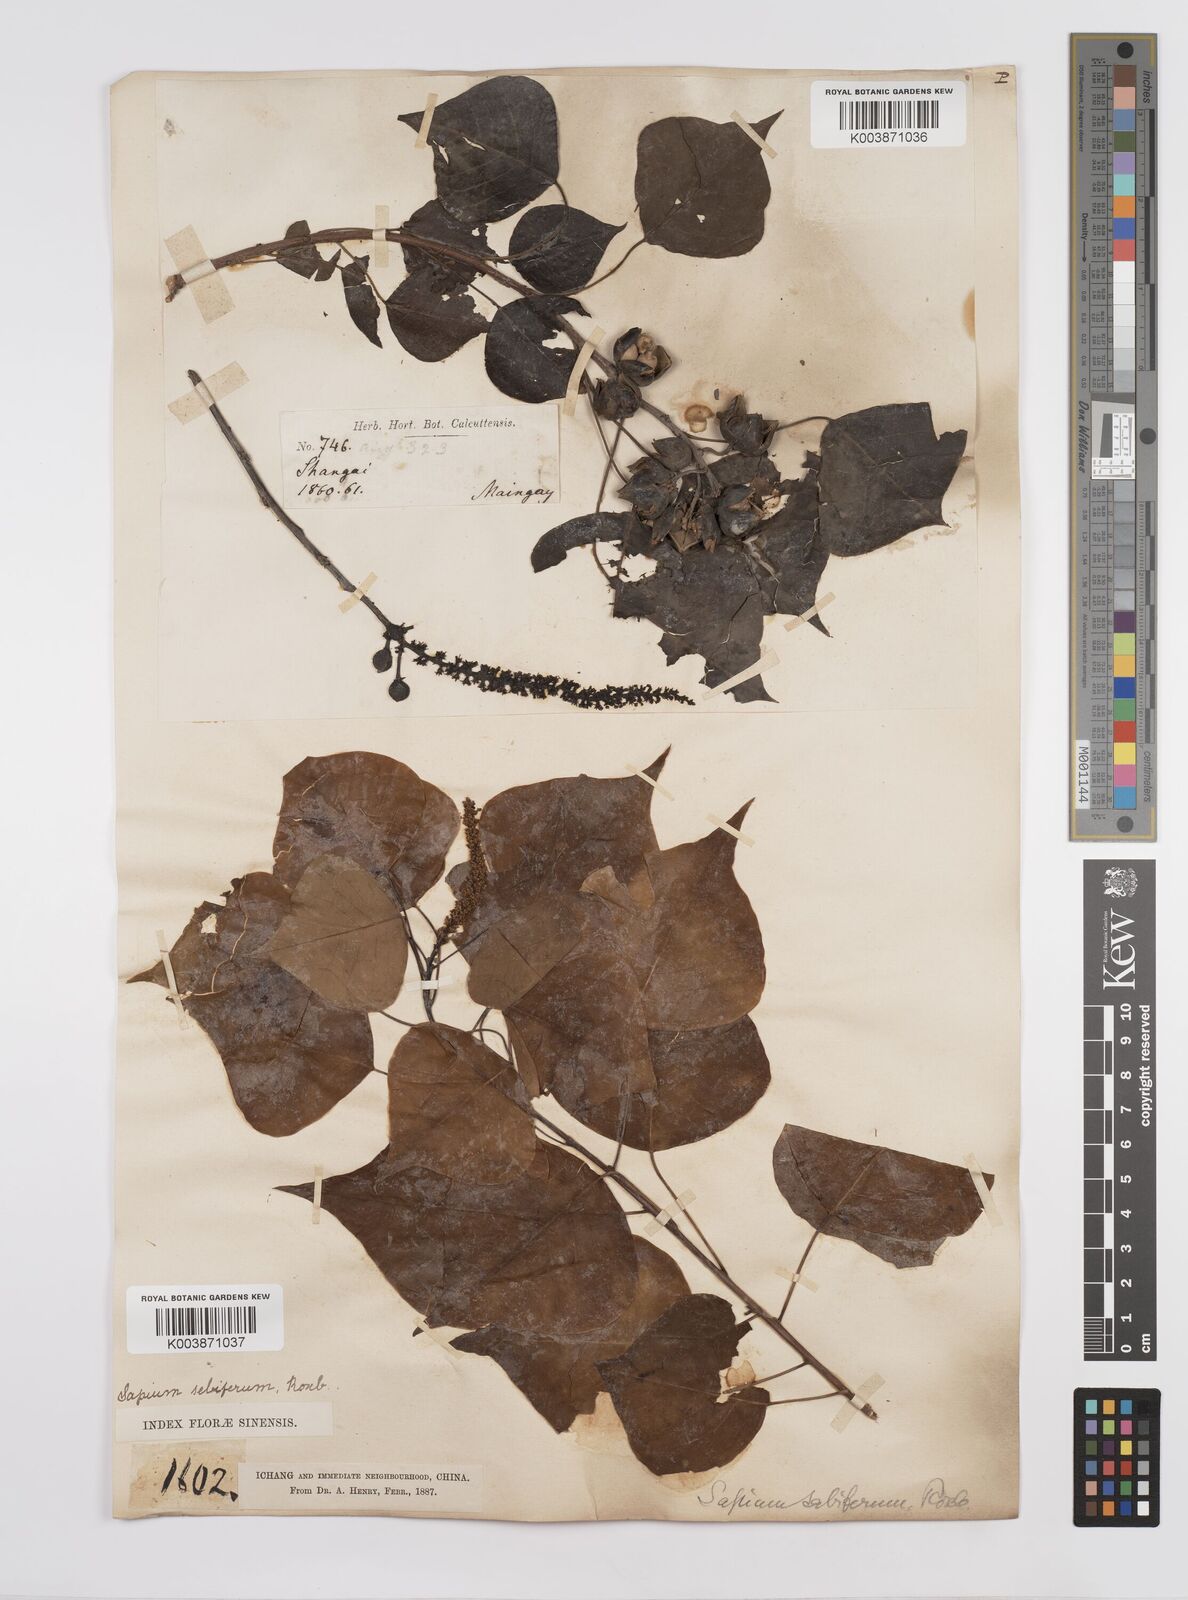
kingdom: Plantae
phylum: Tracheophyta
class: Magnoliopsida
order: Malpighiales
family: Euphorbiaceae
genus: Triadica
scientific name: Triadica sebifera
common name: Chinese tallow
